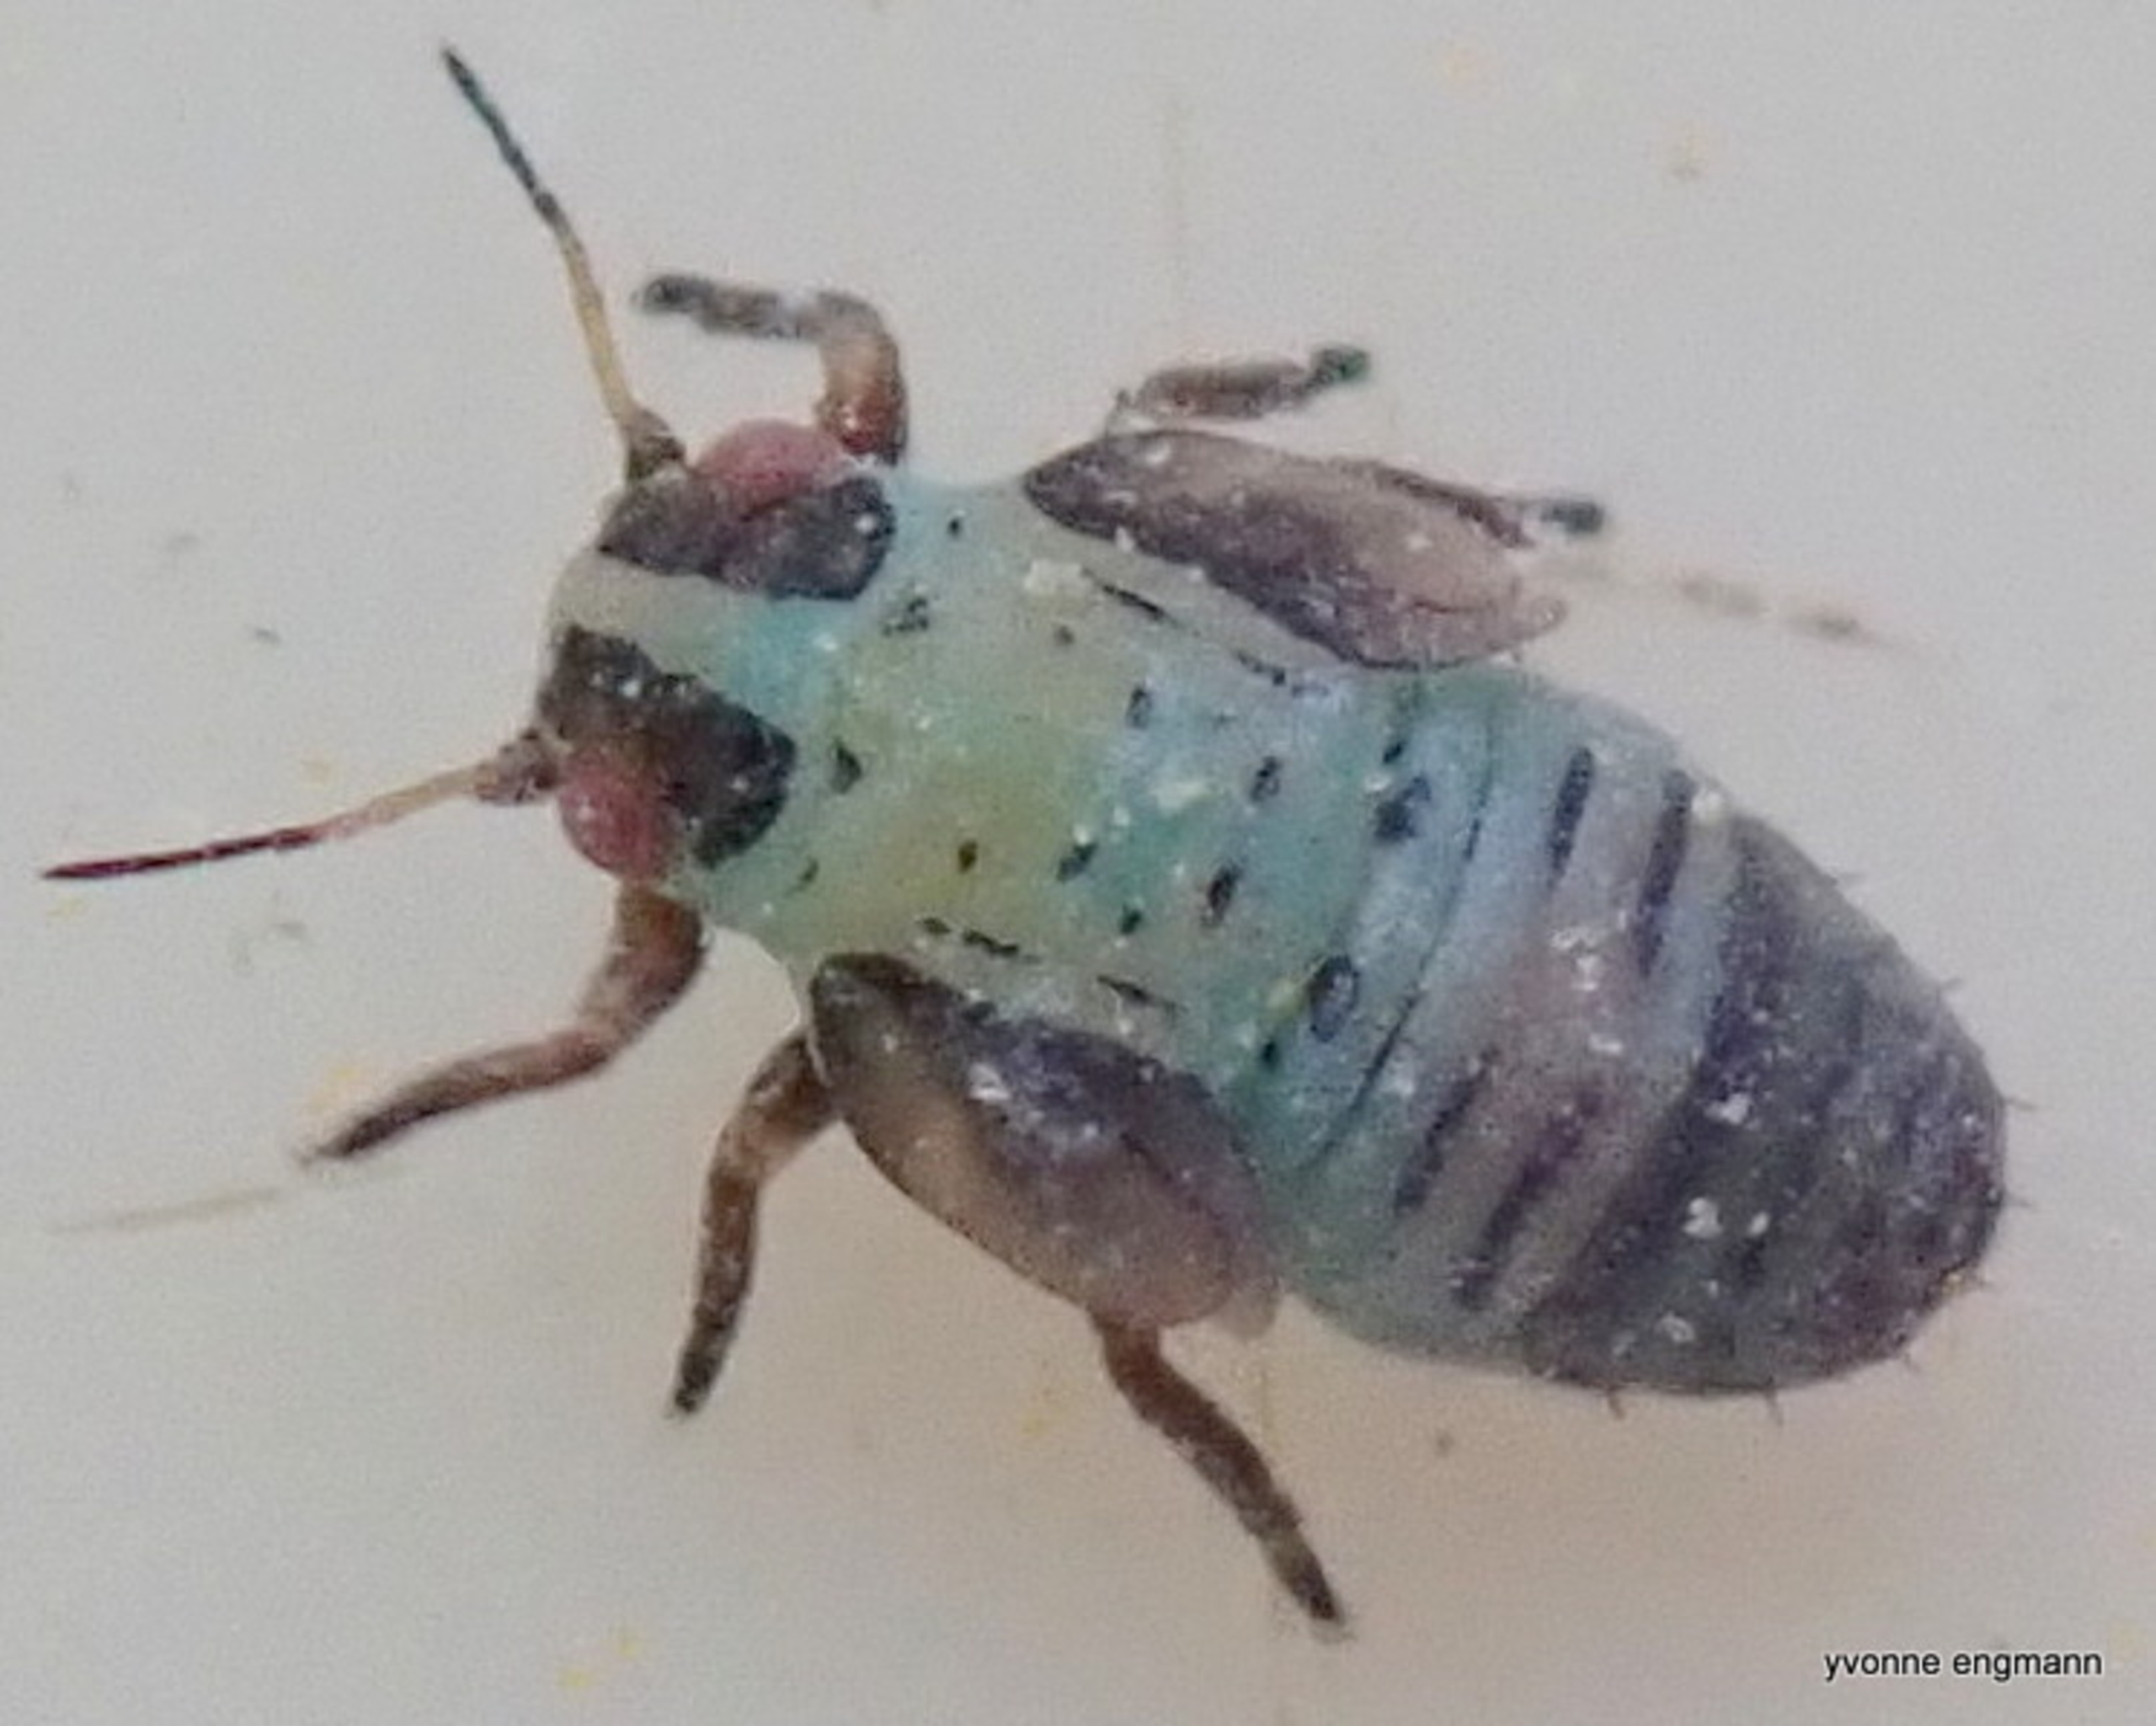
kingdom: Animalia
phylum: Arthropoda
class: Insecta
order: Hemiptera
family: Psyllidae
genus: Arytainilla
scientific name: Arytainilla spartiophila
